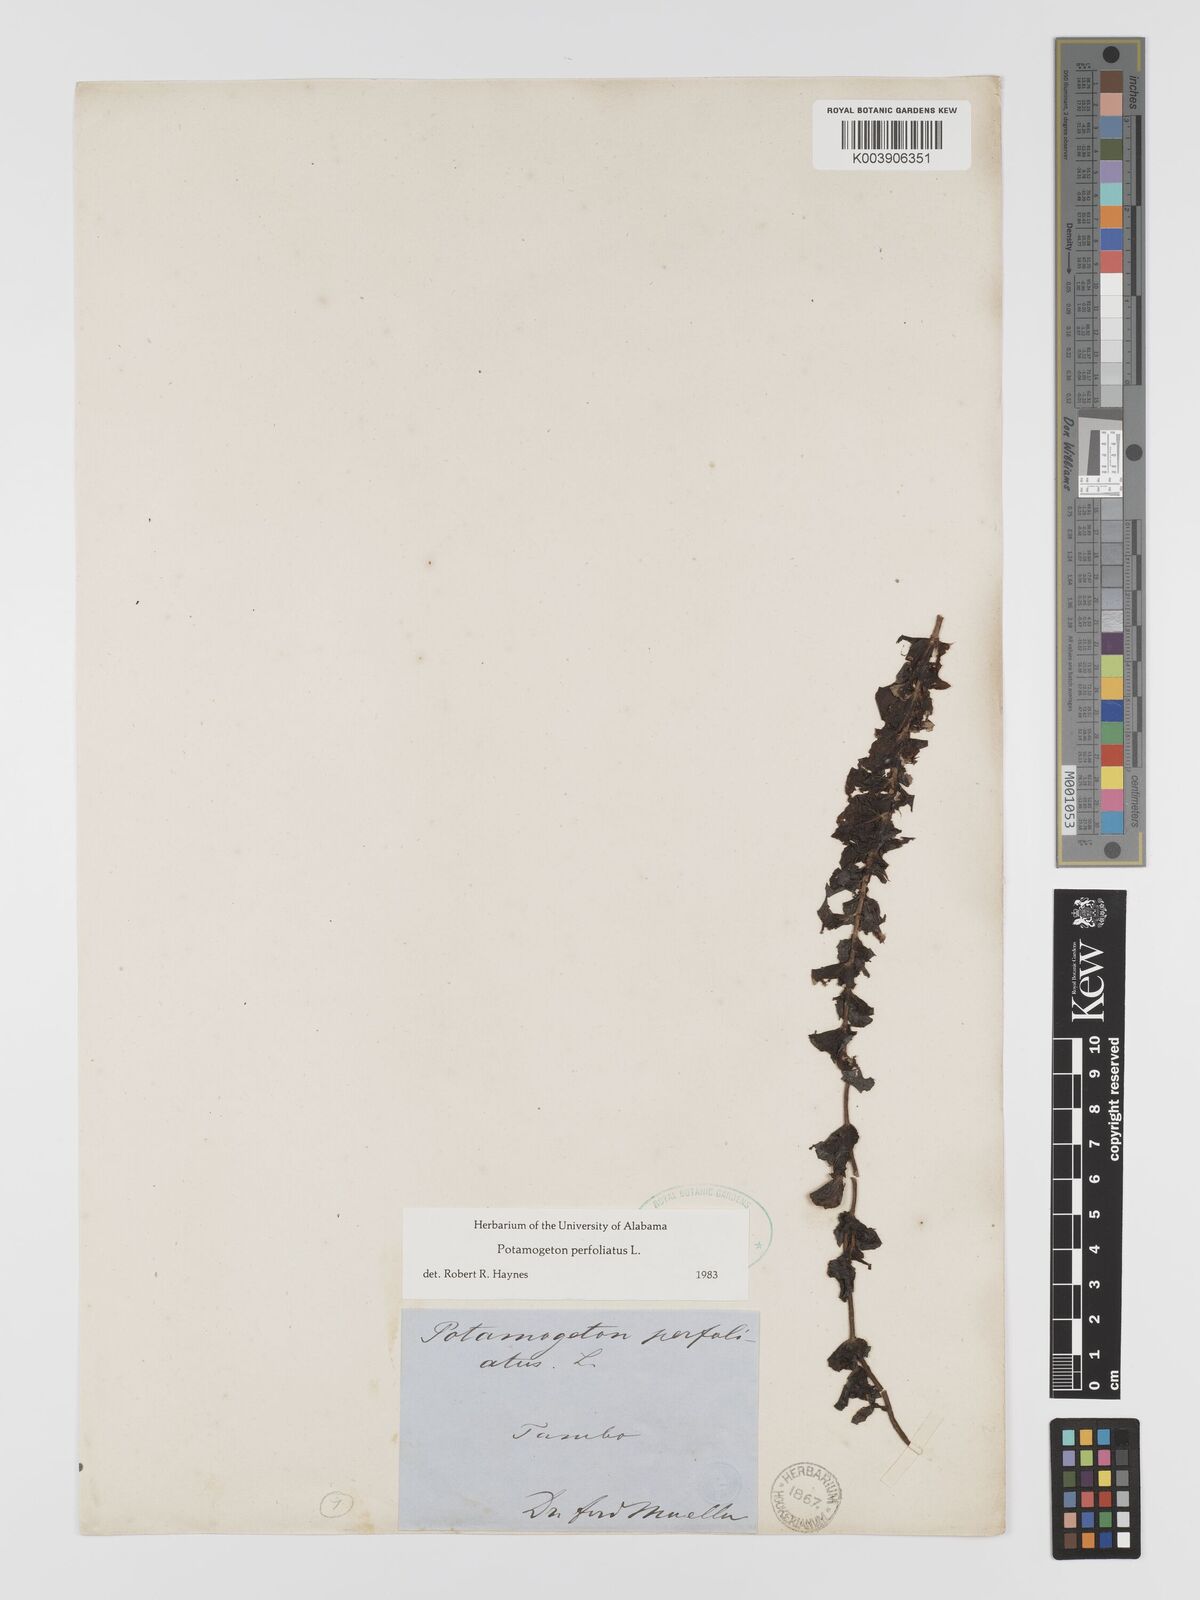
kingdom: Plantae
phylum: Tracheophyta
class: Liliopsida
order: Alismatales
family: Potamogetonaceae
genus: Potamogeton
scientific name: Potamogeton perfoliatus
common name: Perfoliate pondweed
